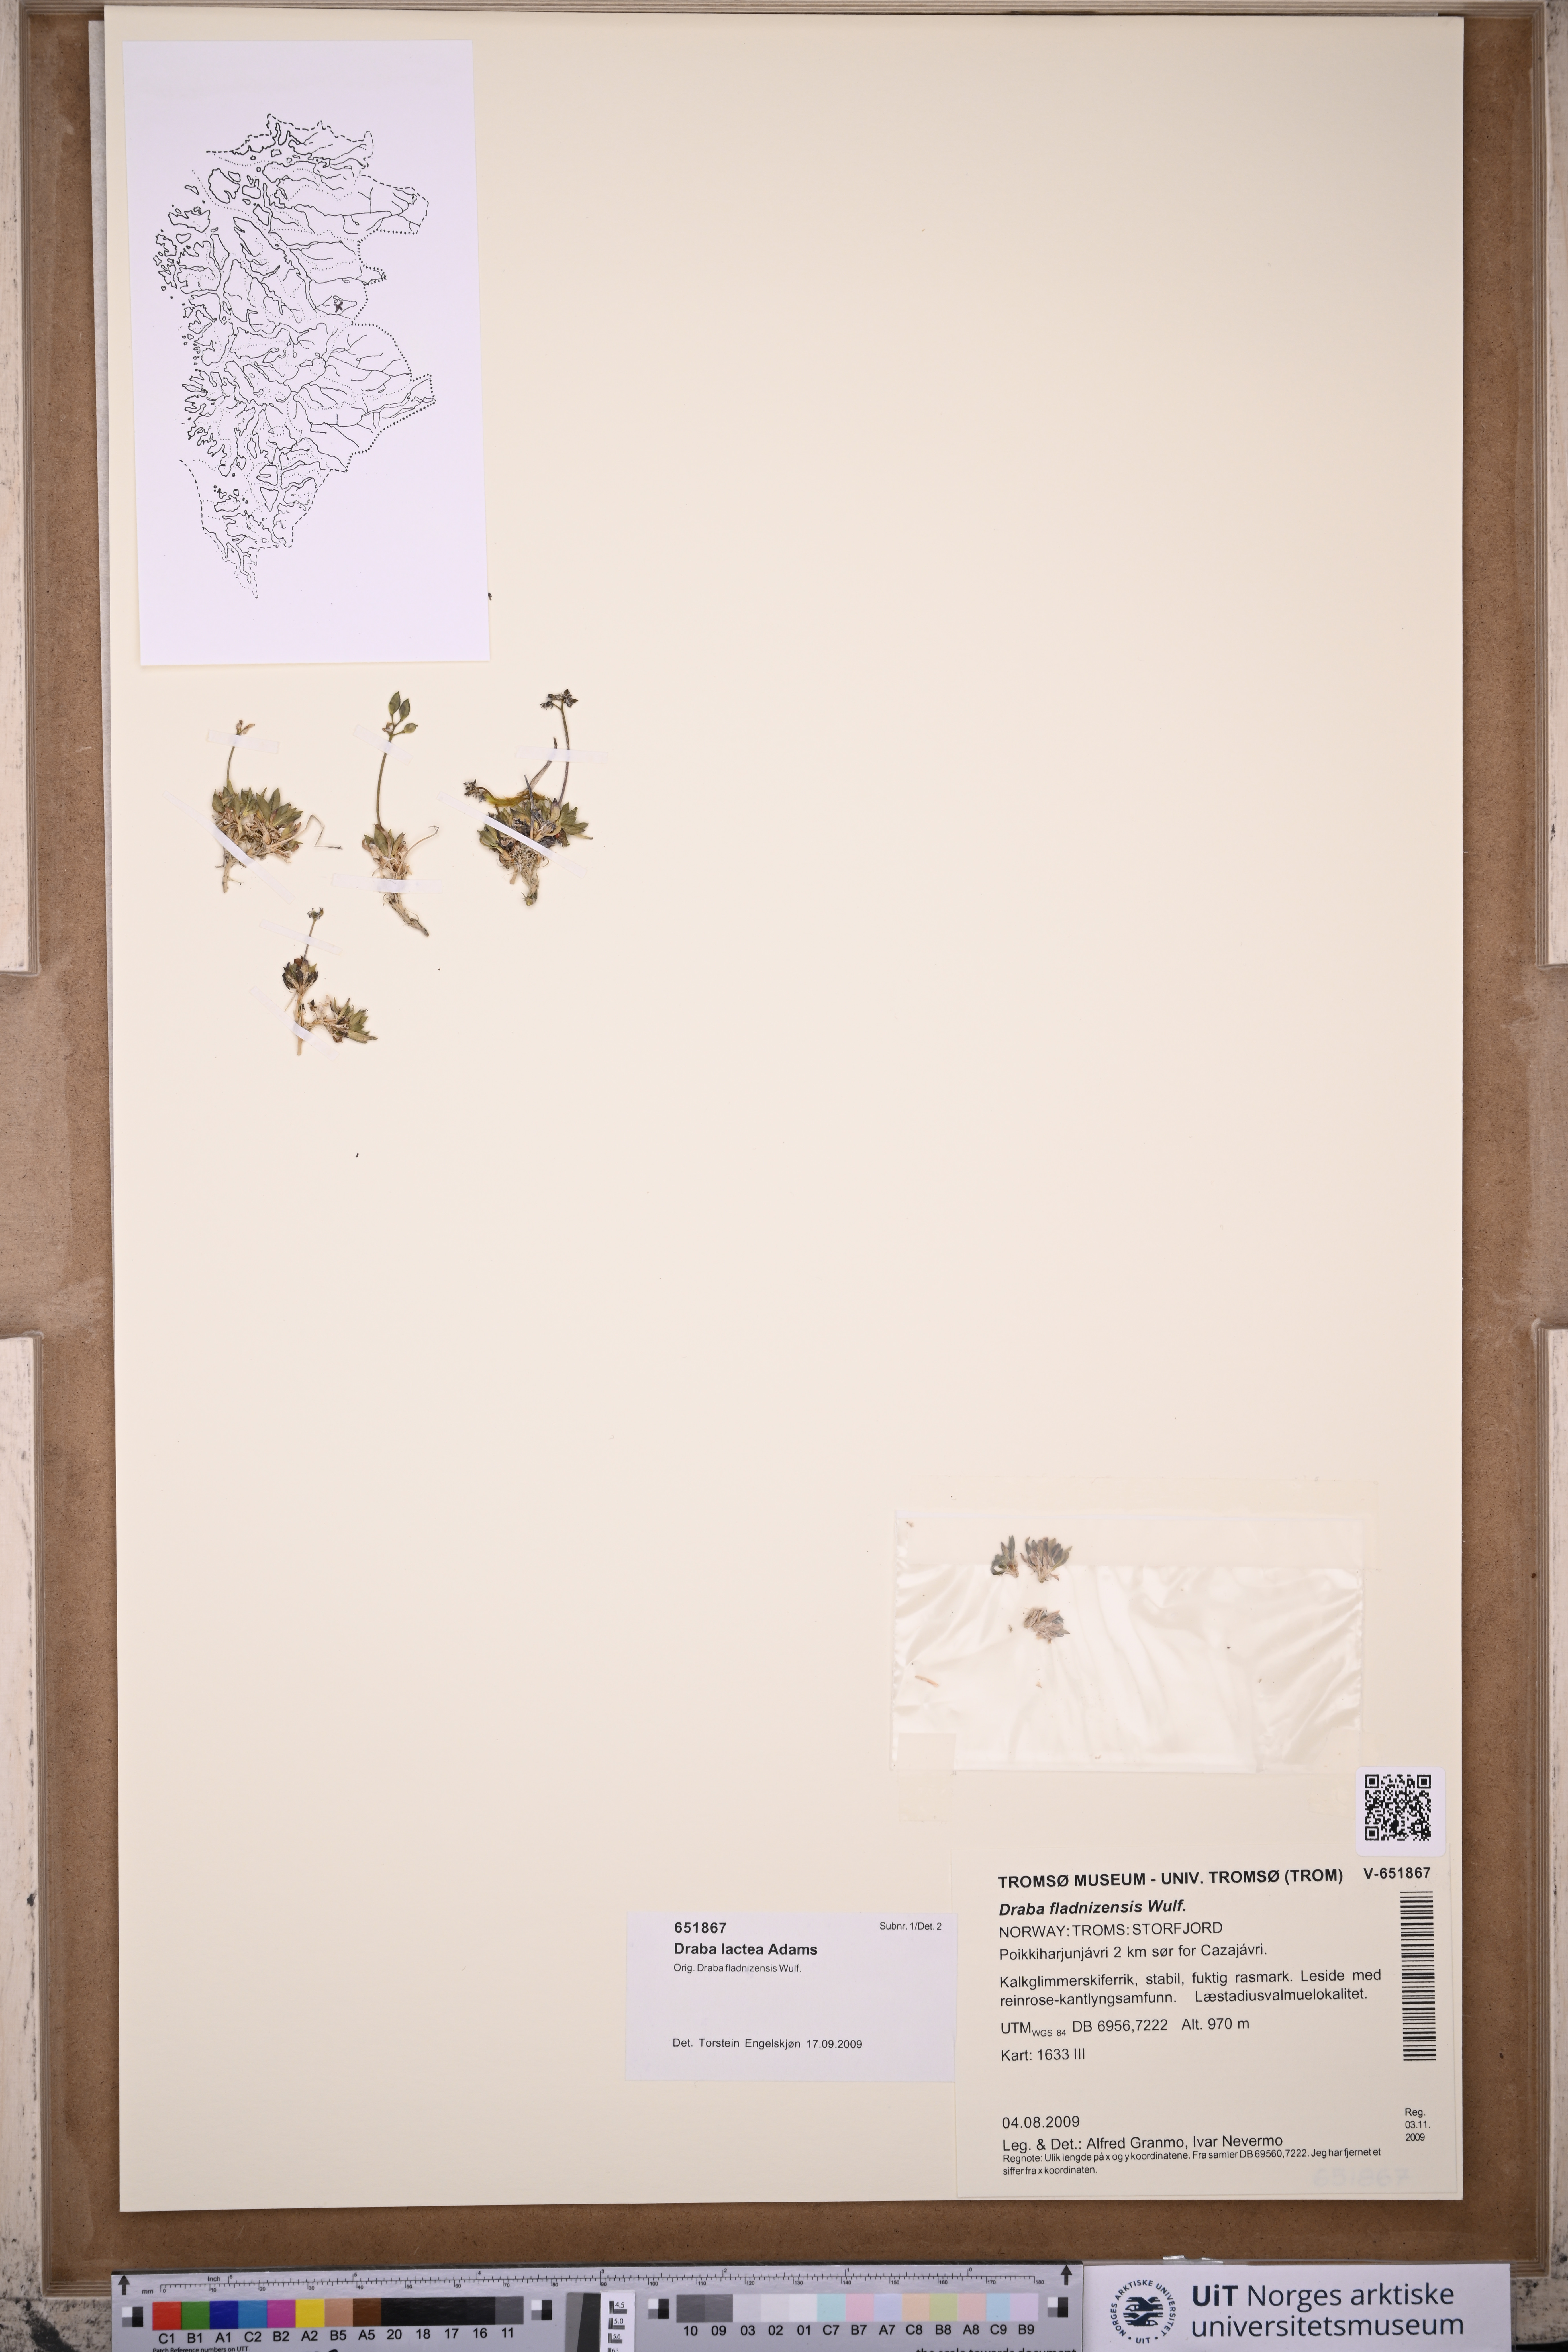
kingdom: Plantae
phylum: Tracheophyta
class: Magnoliopsida
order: Brassicales
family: Brassicaceae
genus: Draba
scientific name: Draba lactea
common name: Milky draba
